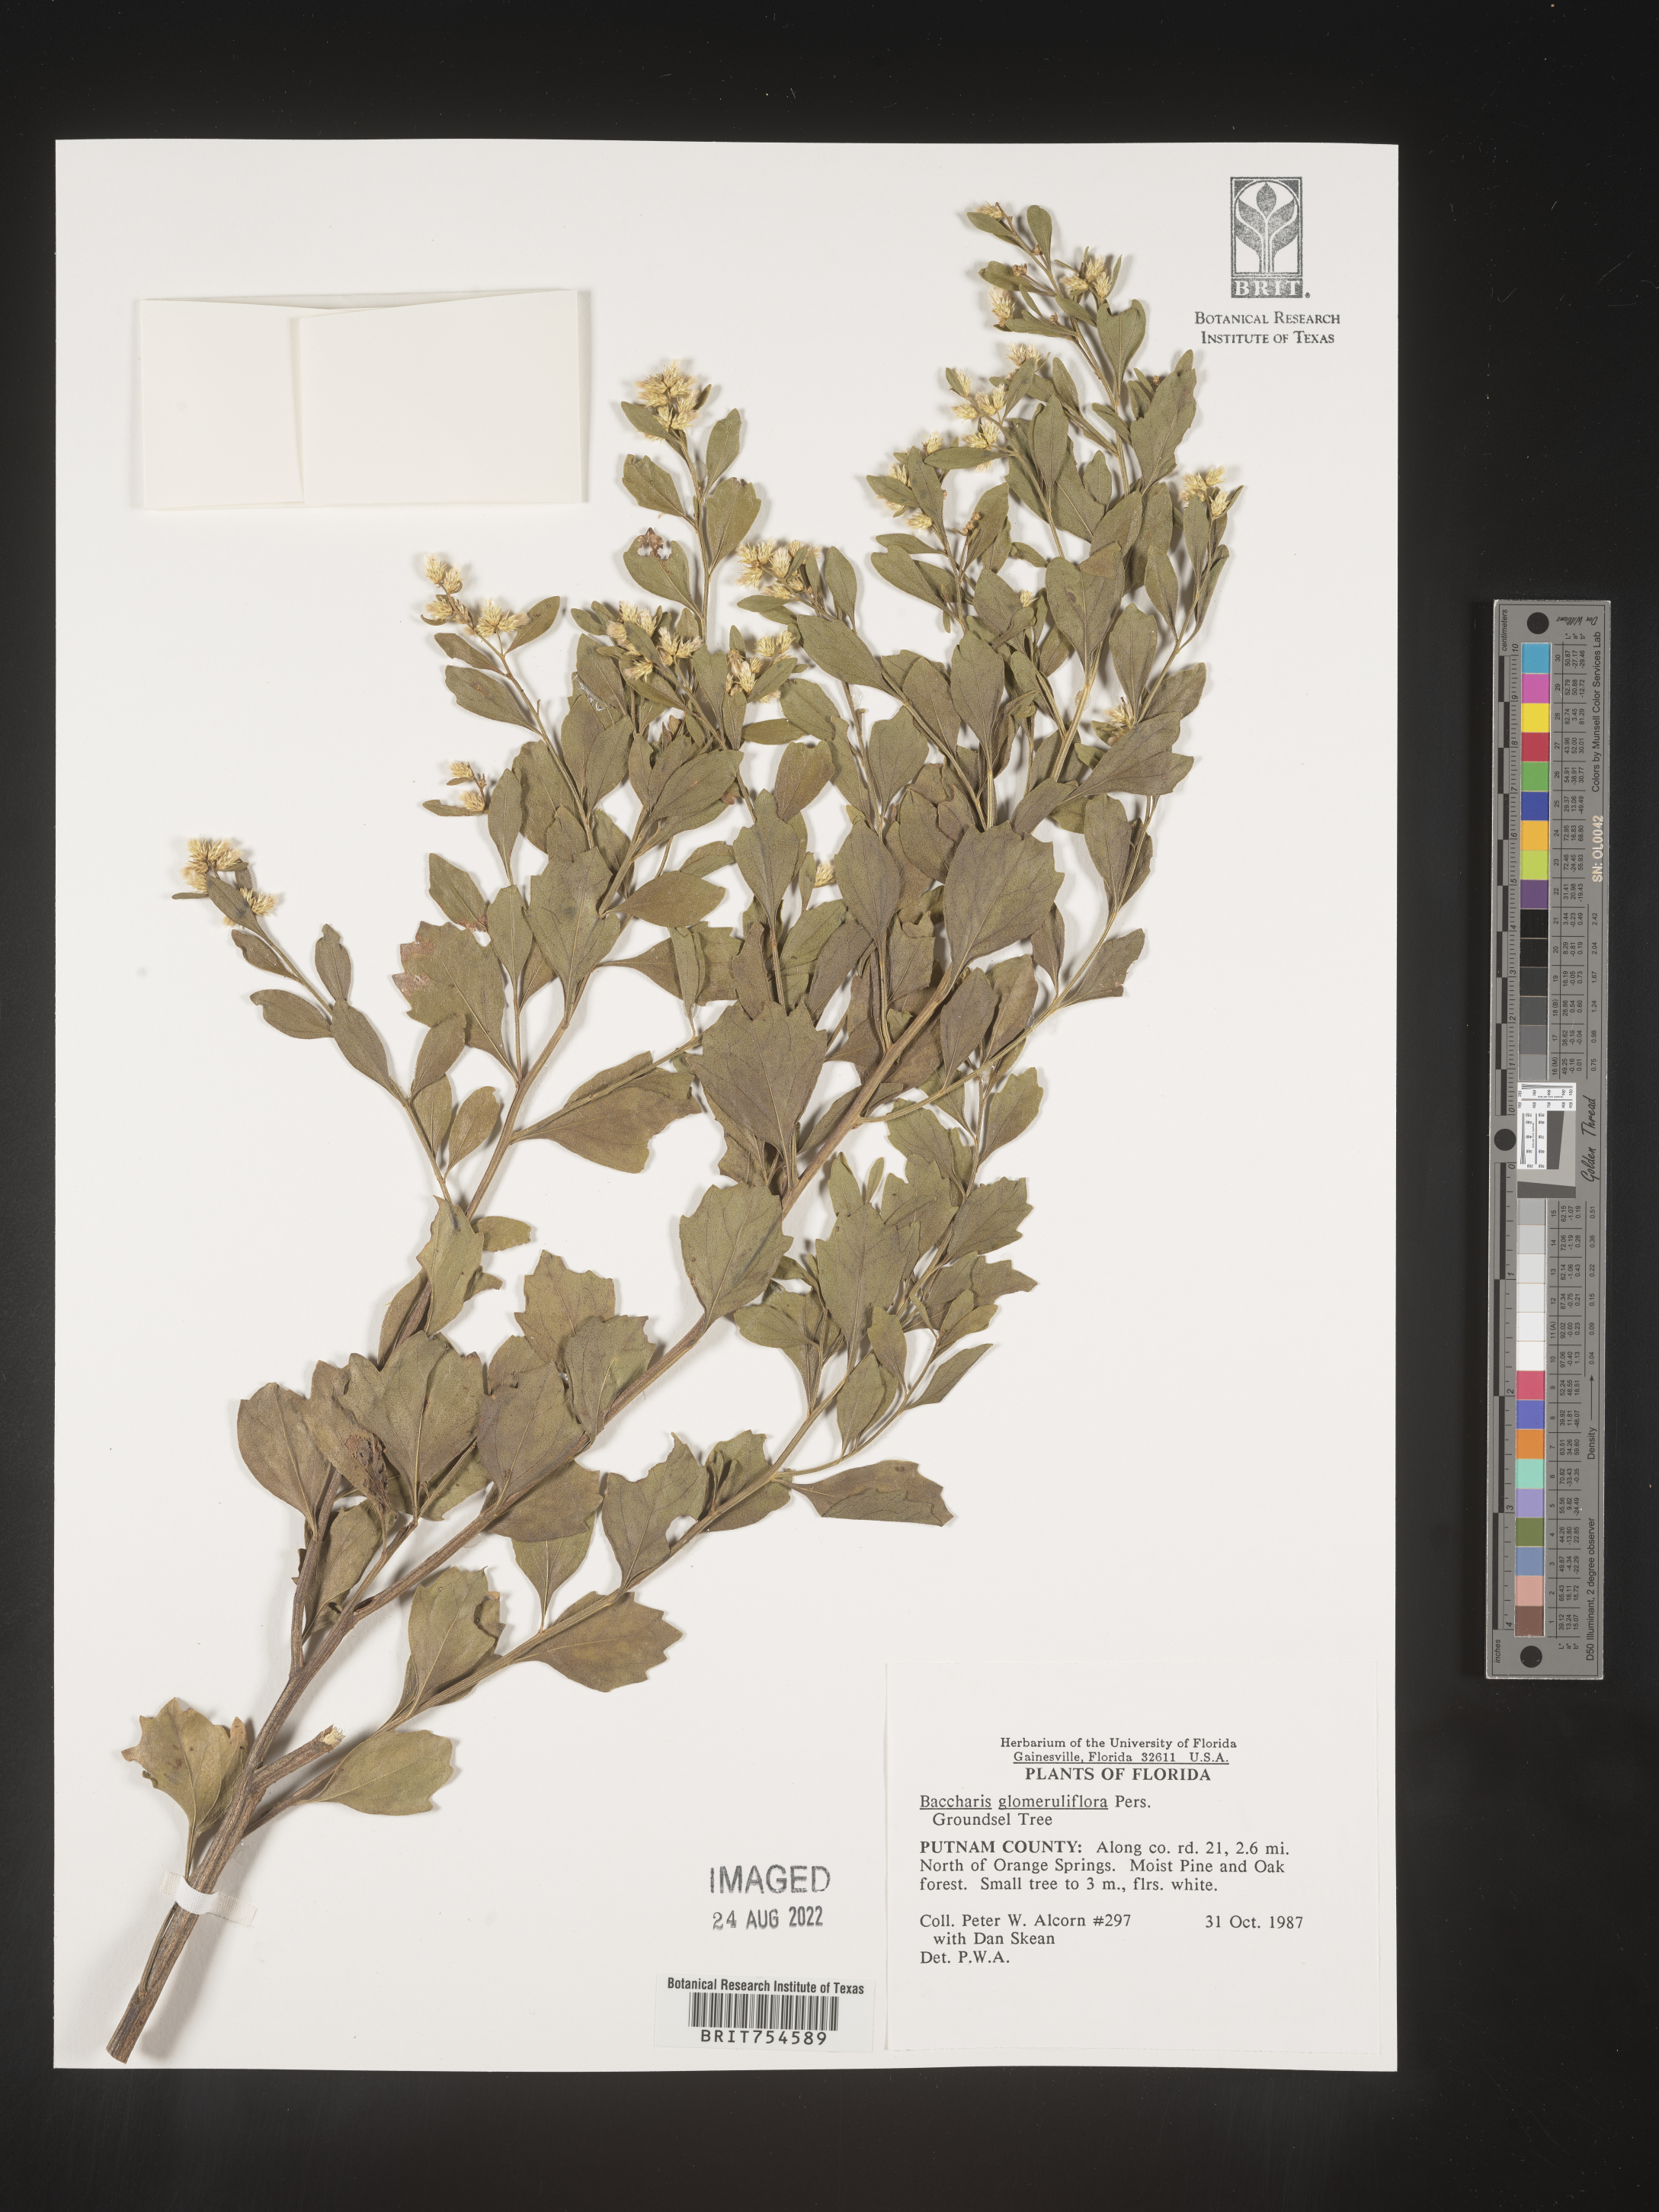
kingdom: Plantae
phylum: Tracheophyta
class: Magnoliopsida
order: Asterales
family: Asteraceae
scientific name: Asteraceae
